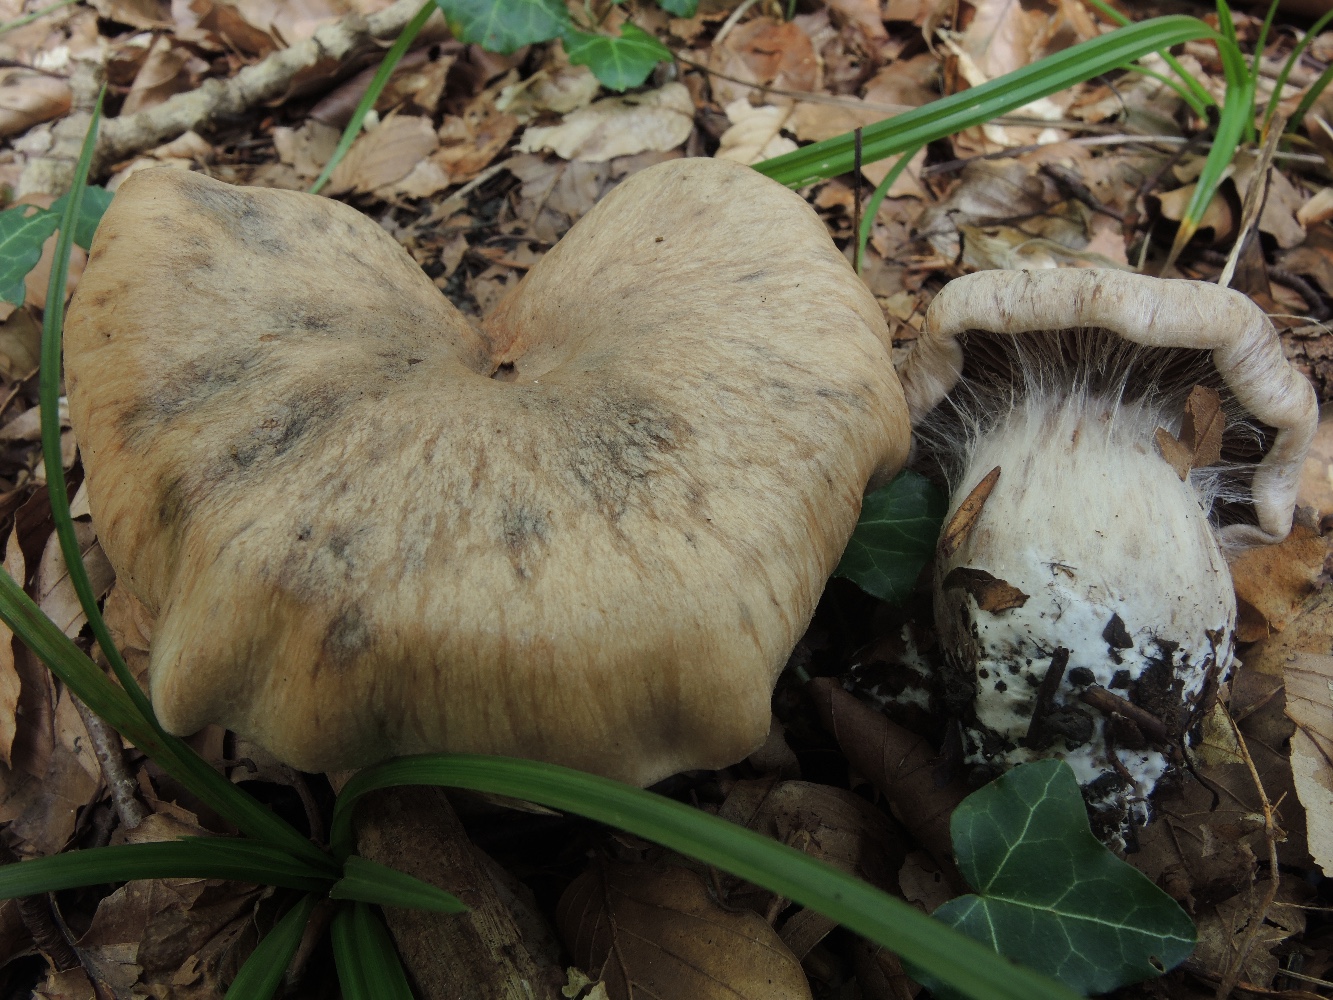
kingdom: Fungi
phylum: Basidiomycota
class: Agaricomycetes
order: Agaricales
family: Cortinariaceae
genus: Cortinarius
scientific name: Cortinarius
